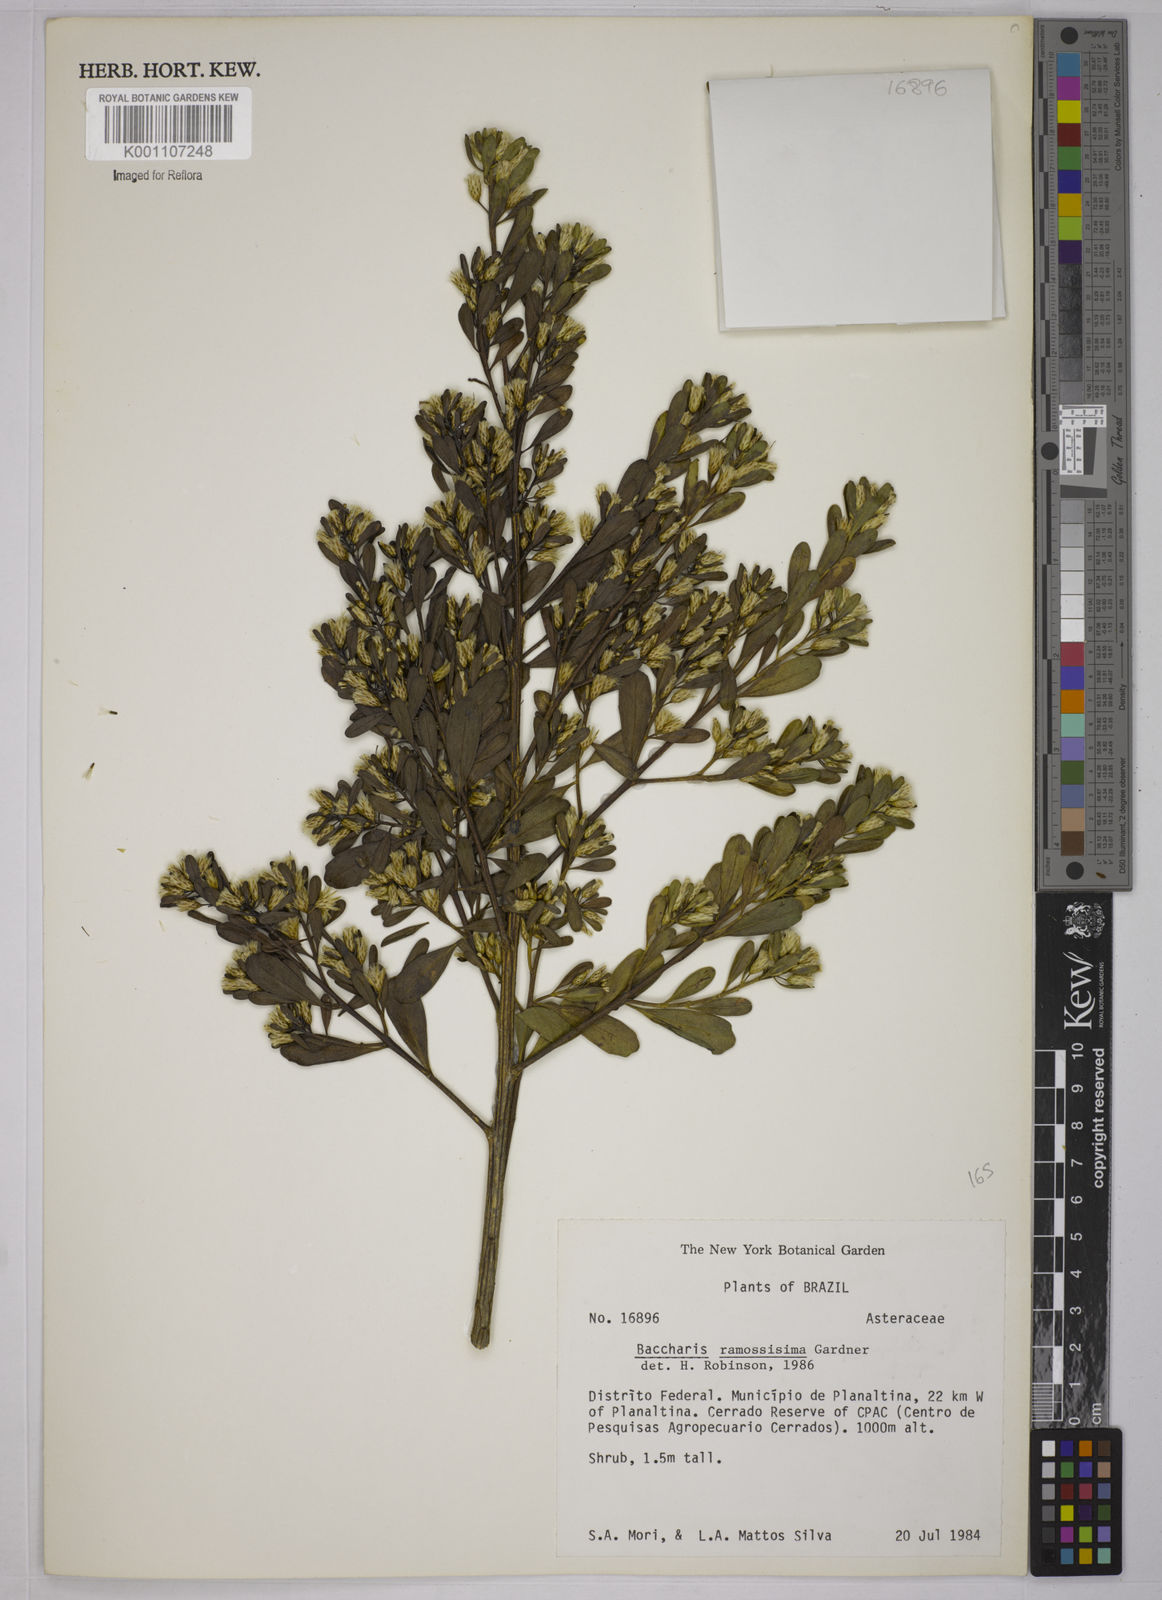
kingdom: Plantae
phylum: Tracheophyta
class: Magnoliopsida
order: Asterales
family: Asteraceae
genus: Baccharis
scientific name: Baccharis retusa
